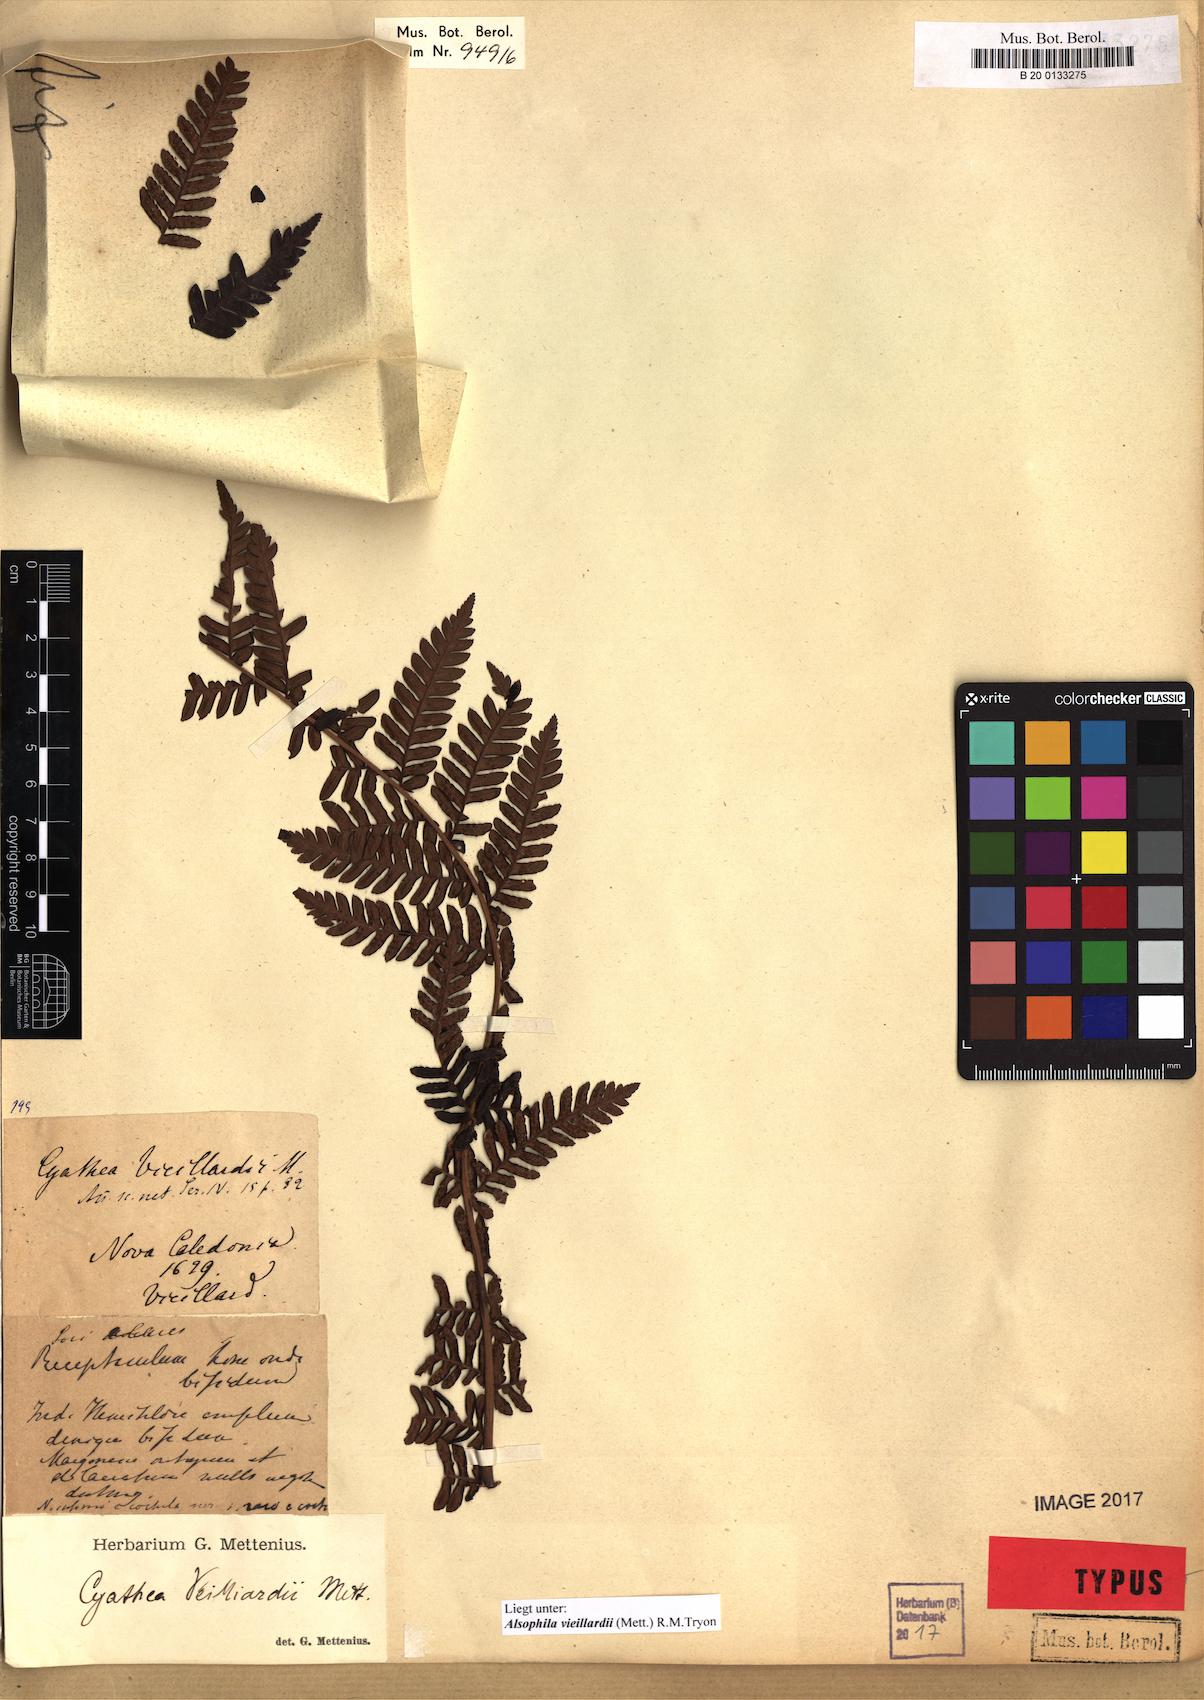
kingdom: Plantae
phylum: Tracheophyta
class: Polypodiopsida
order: Cyatheales
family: Cyatheaceae
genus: Alsophila
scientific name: Alsophila vieillardii
